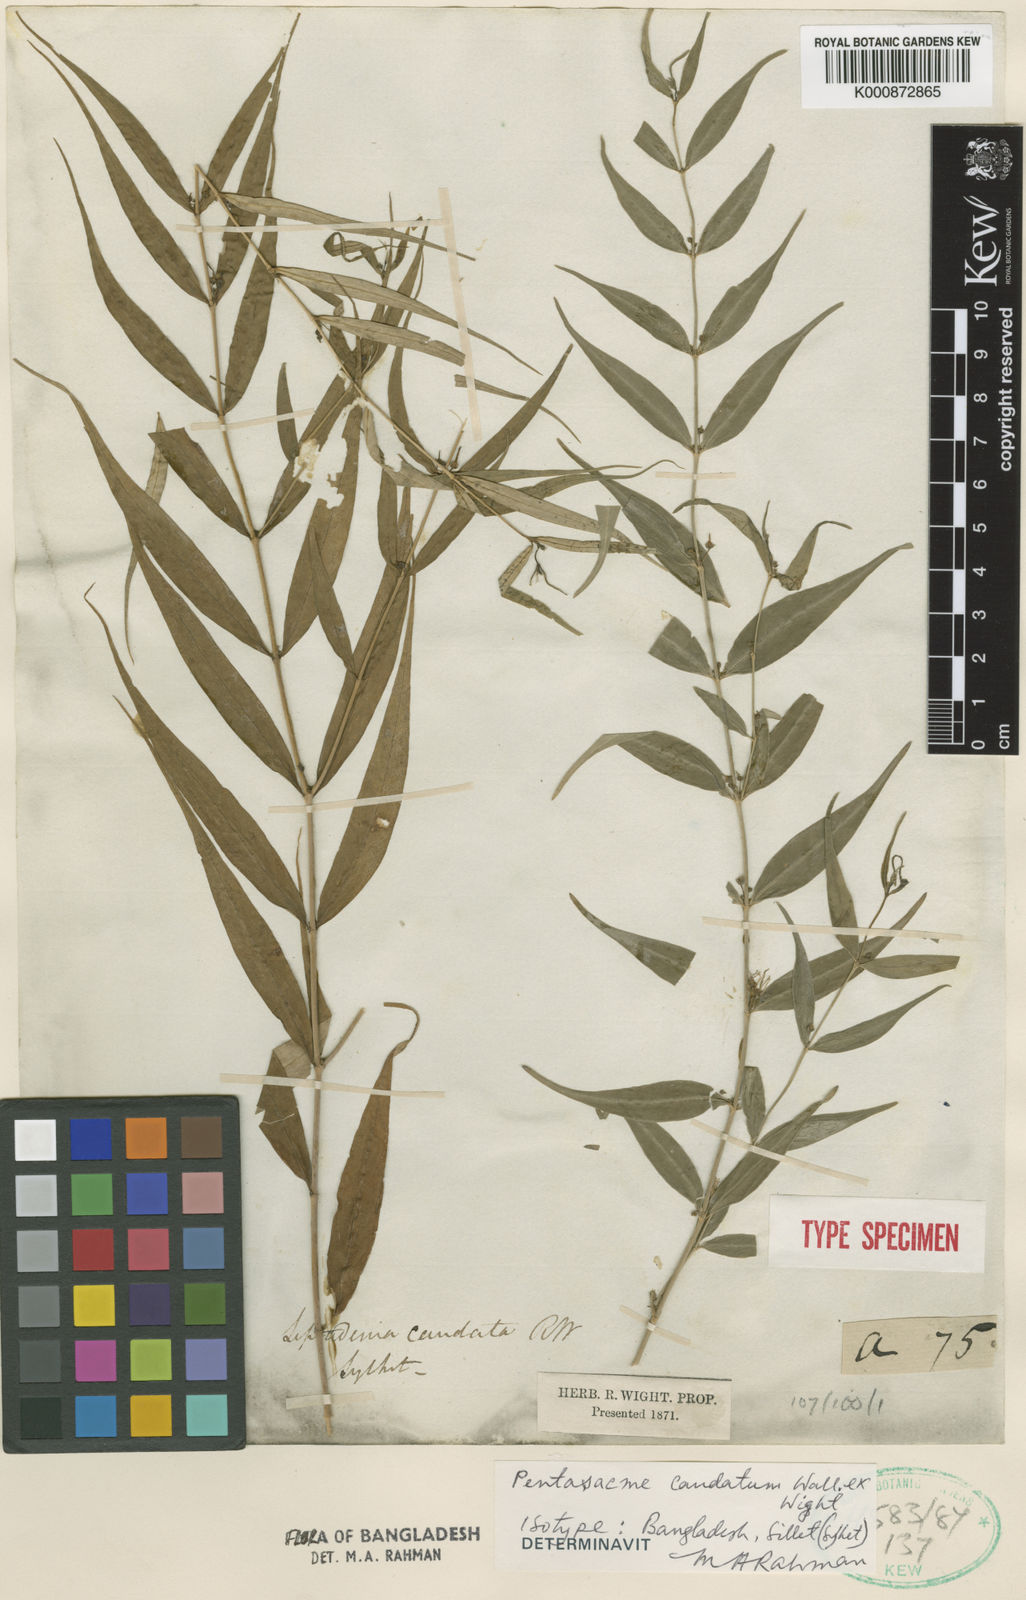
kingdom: Plantae
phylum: Tracheophyta
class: Magnoliopsida
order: Gentianales
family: Apocynaceae
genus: Pentasachme
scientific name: Pentasachme caudatum
